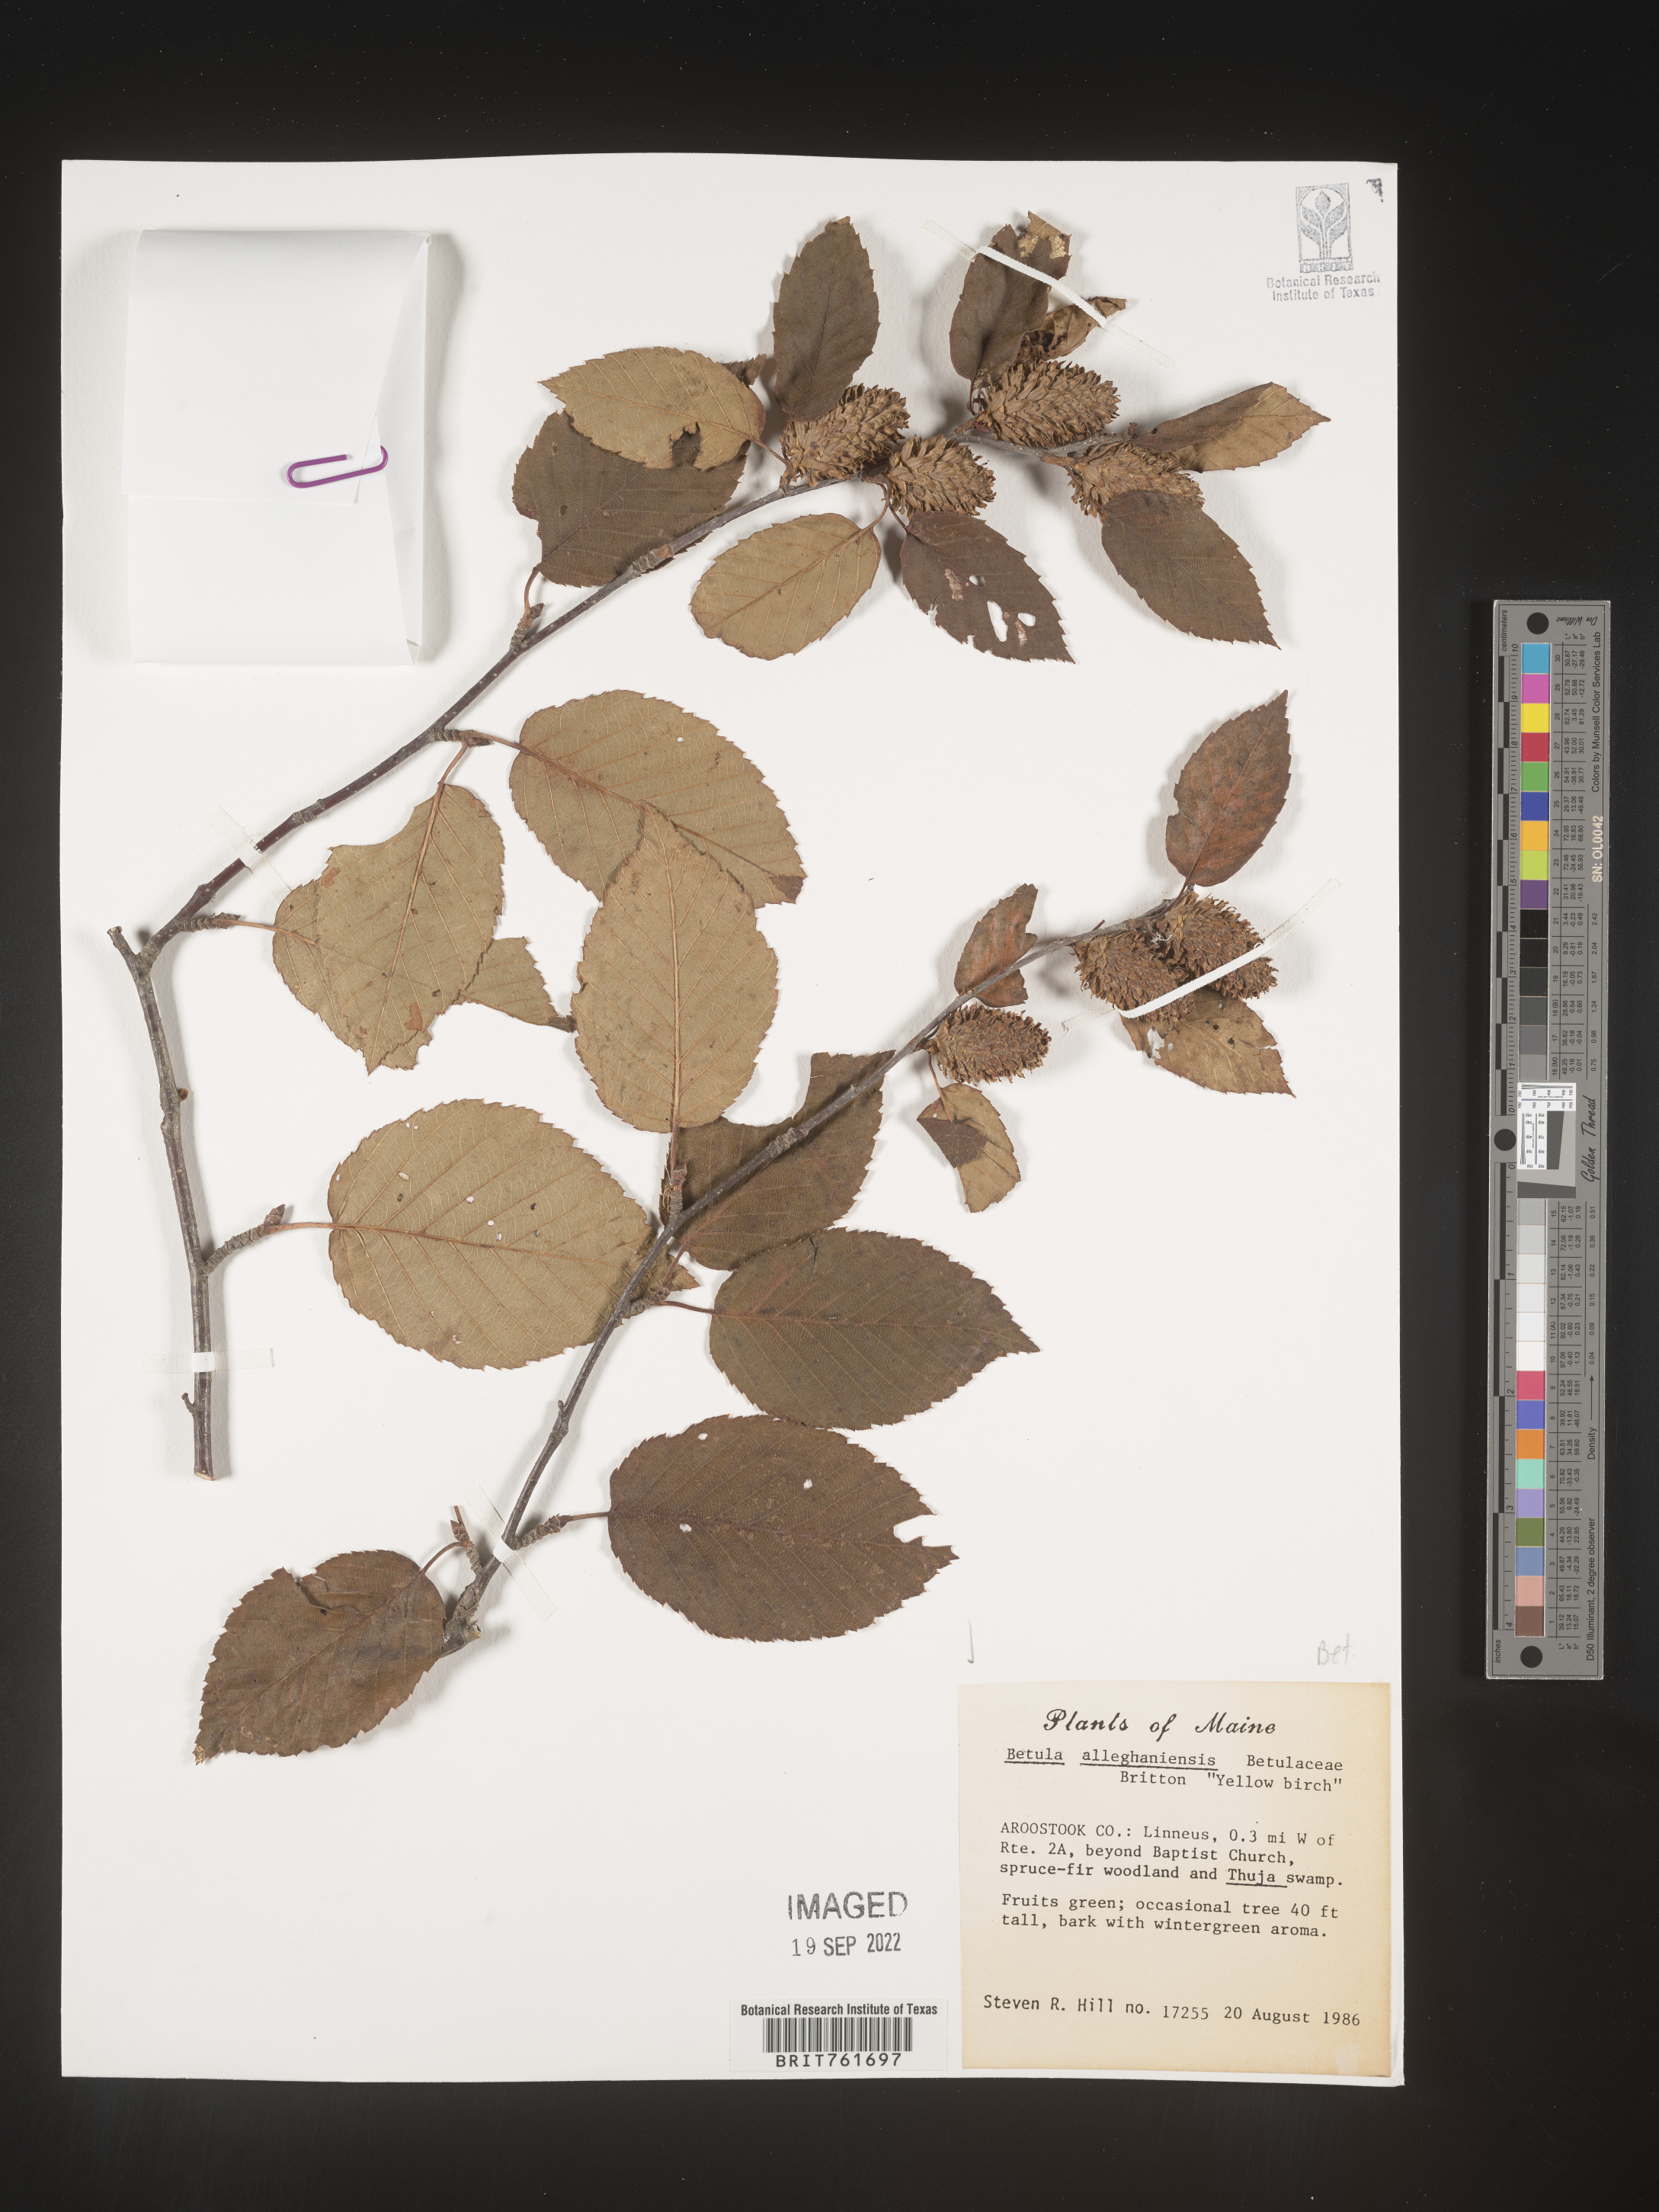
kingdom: Plantae
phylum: Tracheophyta
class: Magnoliopsida
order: Fagales
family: Betulaceae
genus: Betula
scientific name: Betula alleghaniensis
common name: Yellow birch
